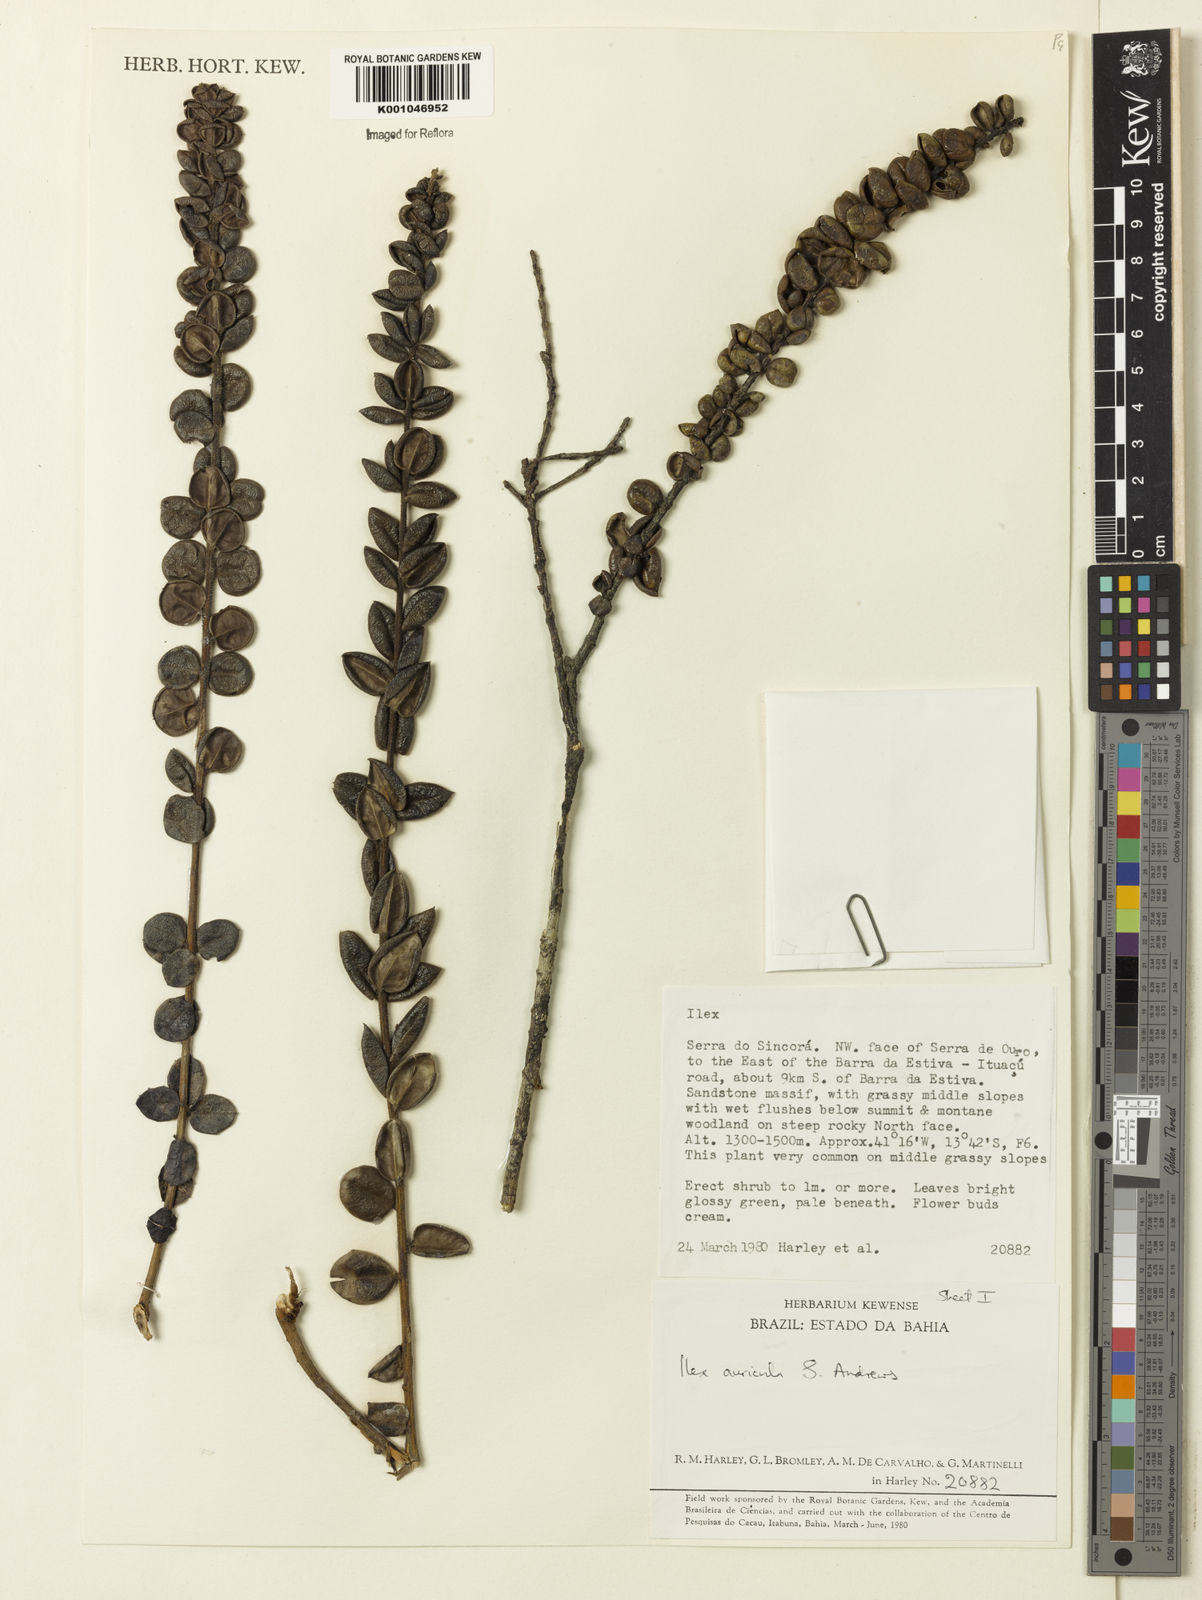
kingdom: Plantae
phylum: Tracheophyta
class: Magnoliopsida
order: Aquifoliales
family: Aquifoliaceae
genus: Ilex
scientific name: Ilex auricula
